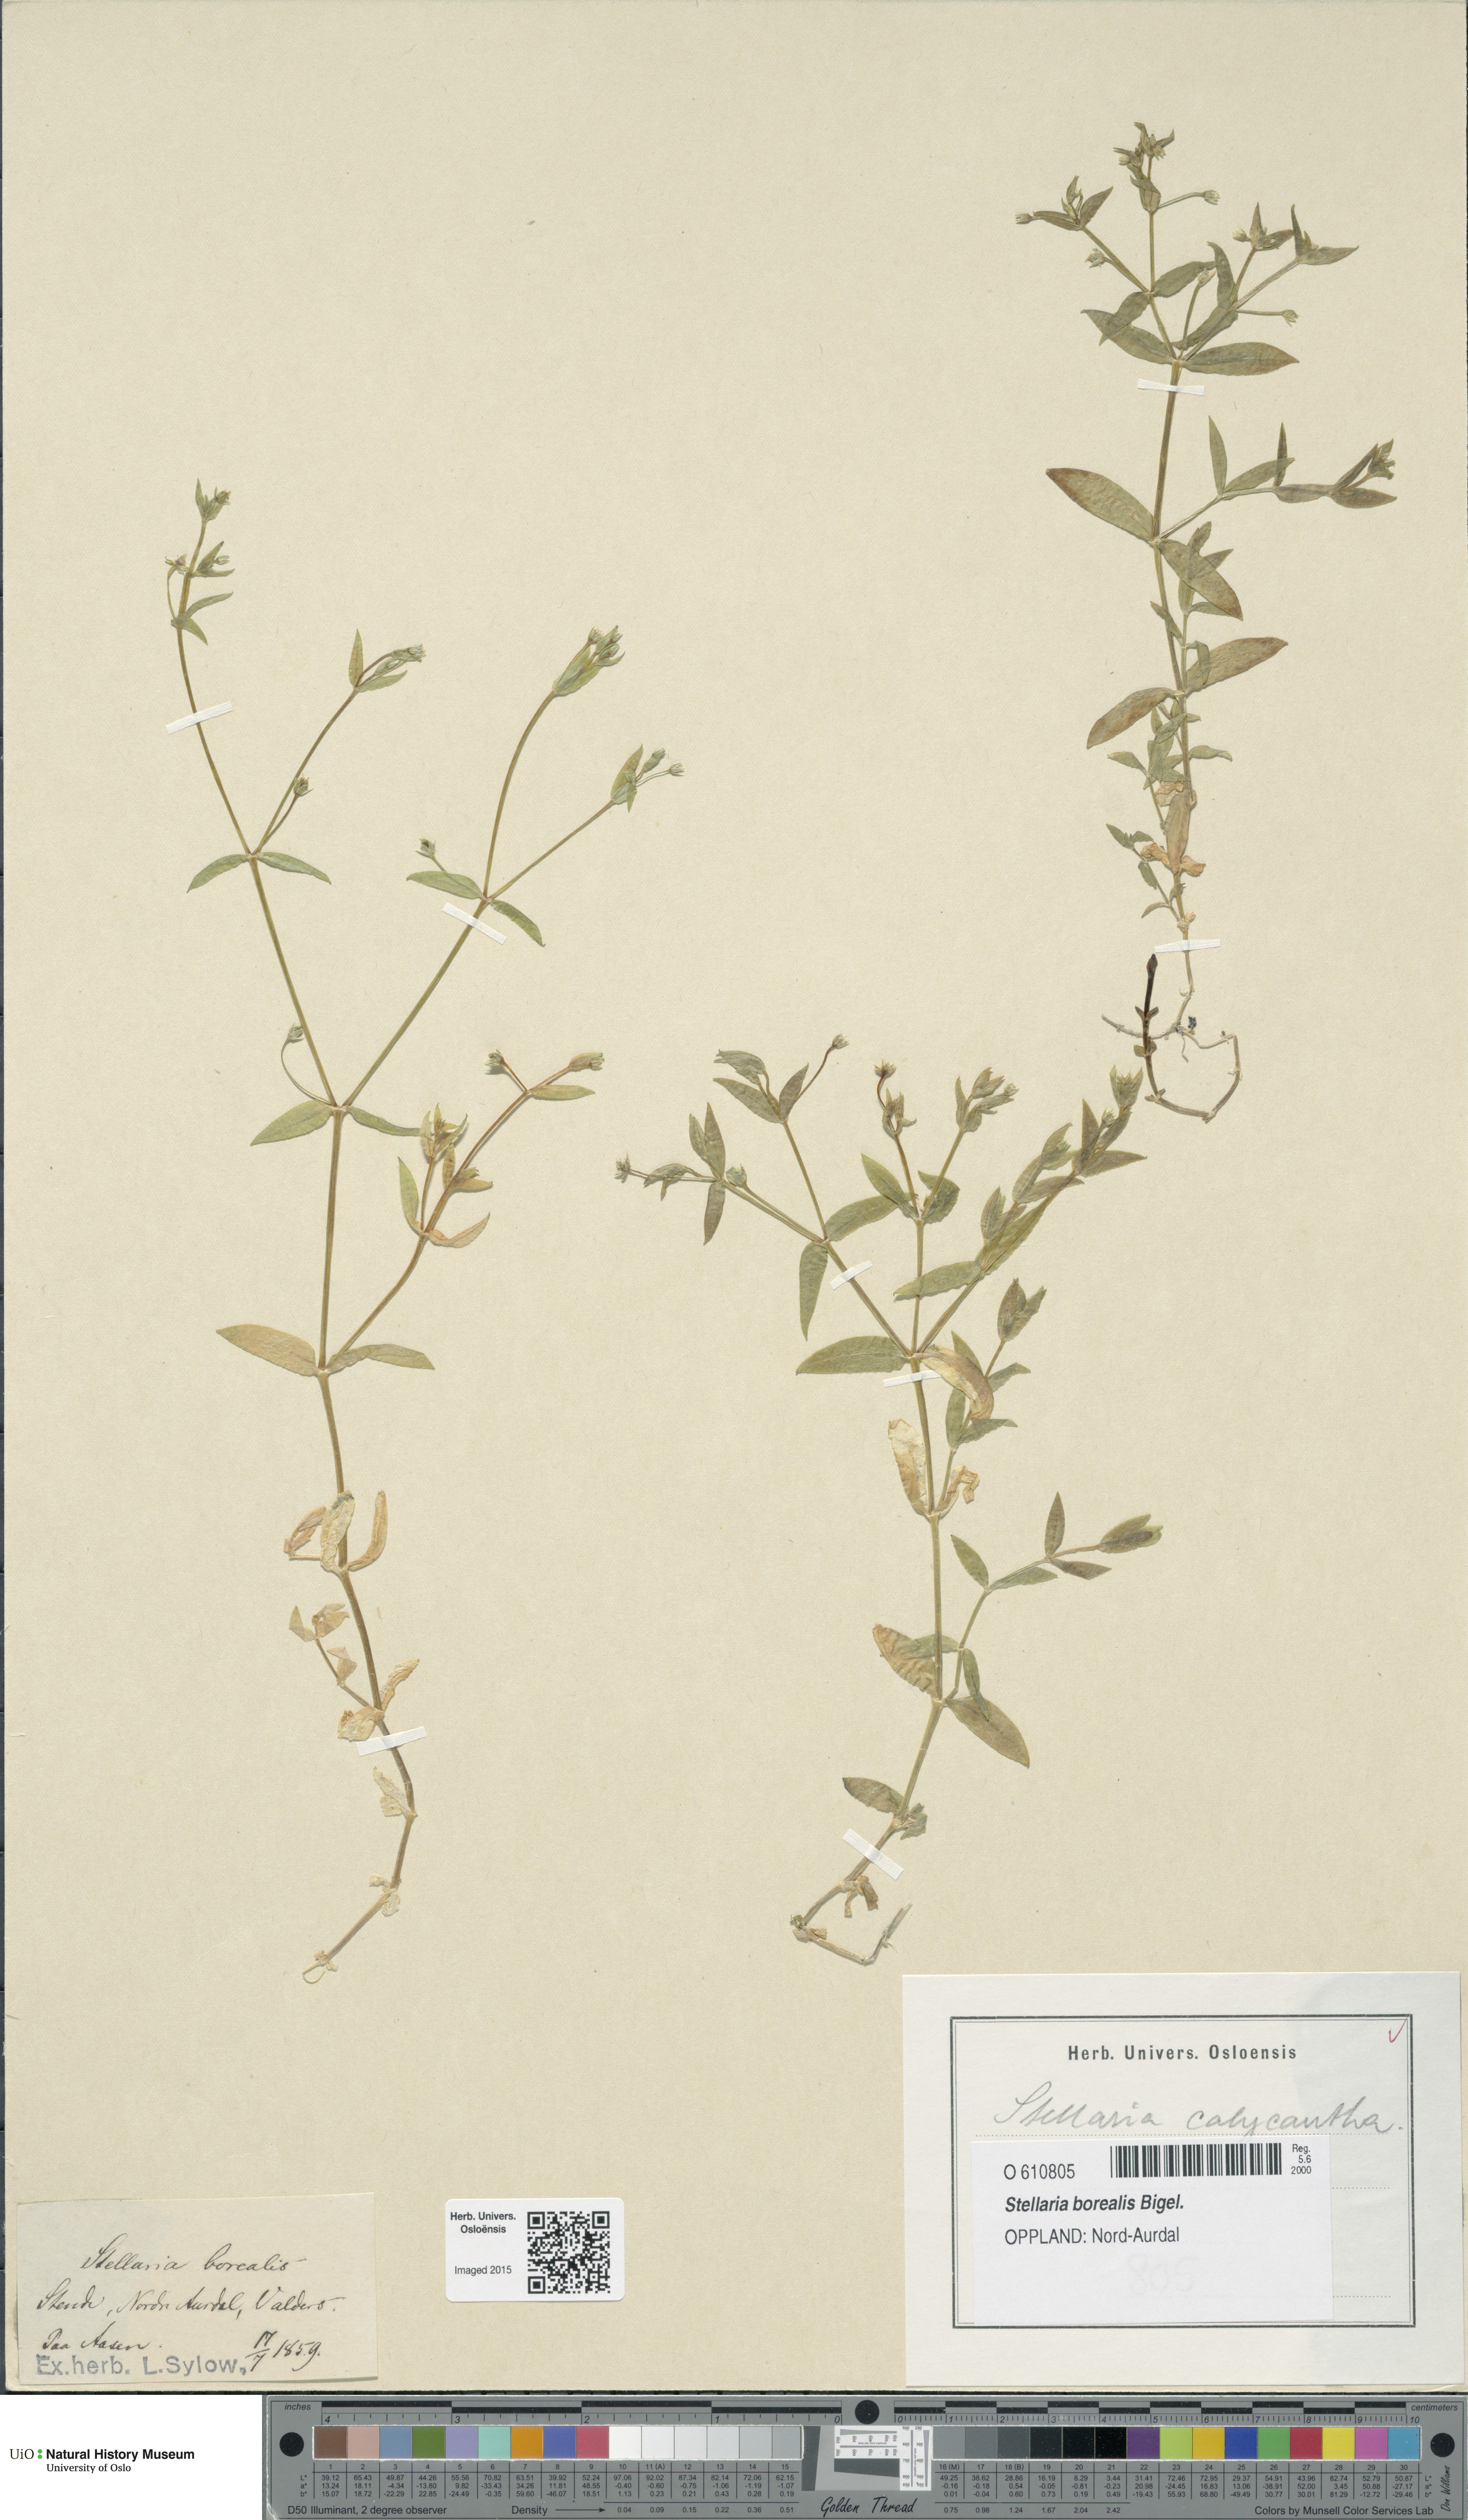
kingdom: Plantae
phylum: Tracheophyta
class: Magnoliopsida
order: Caryophyllales
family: Caryophyllaceae
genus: Stellaria
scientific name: Stellaria borealis
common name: Boreal starwort
